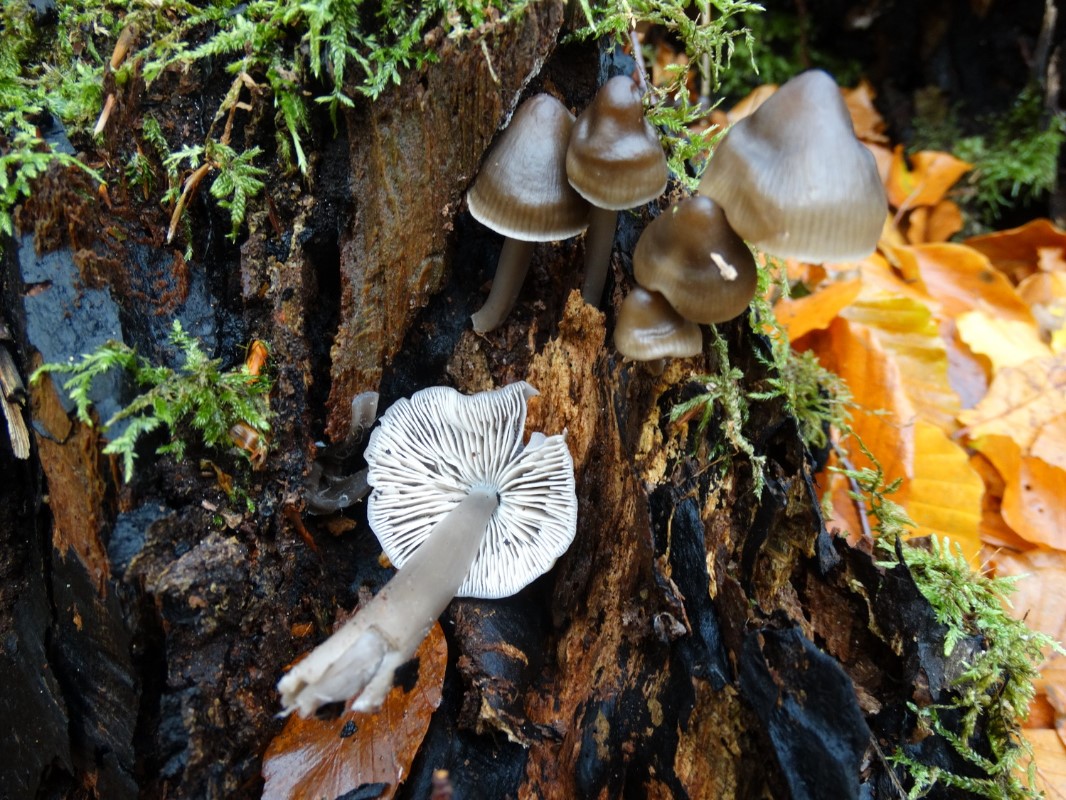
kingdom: Fungi
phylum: Basidiomycota
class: Agaricomycetes
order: Agaricales
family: Mycenaceae
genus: Mycena
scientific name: Mycena galericulata
